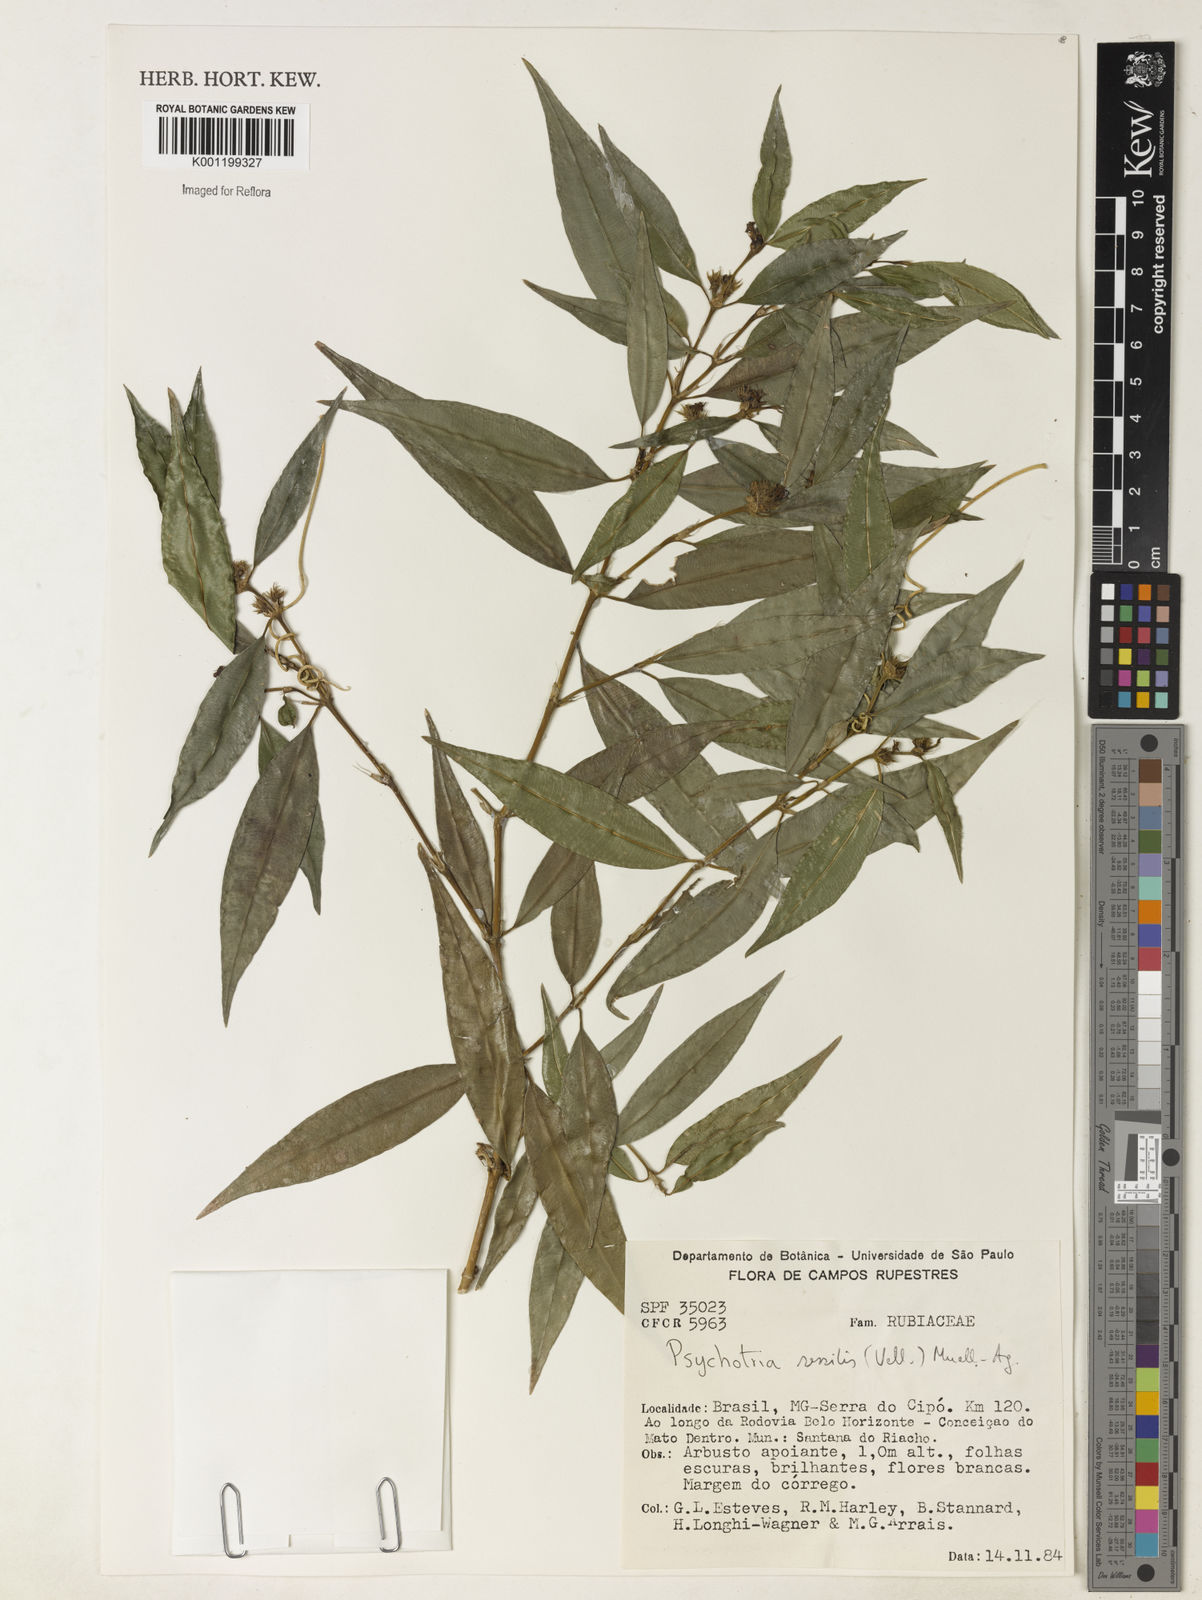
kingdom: Plantae
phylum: Tracheophyta
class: Magnoliopsida
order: Gentianales
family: Rubiaceae
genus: Rudgea
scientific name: Rudgea sessilis
